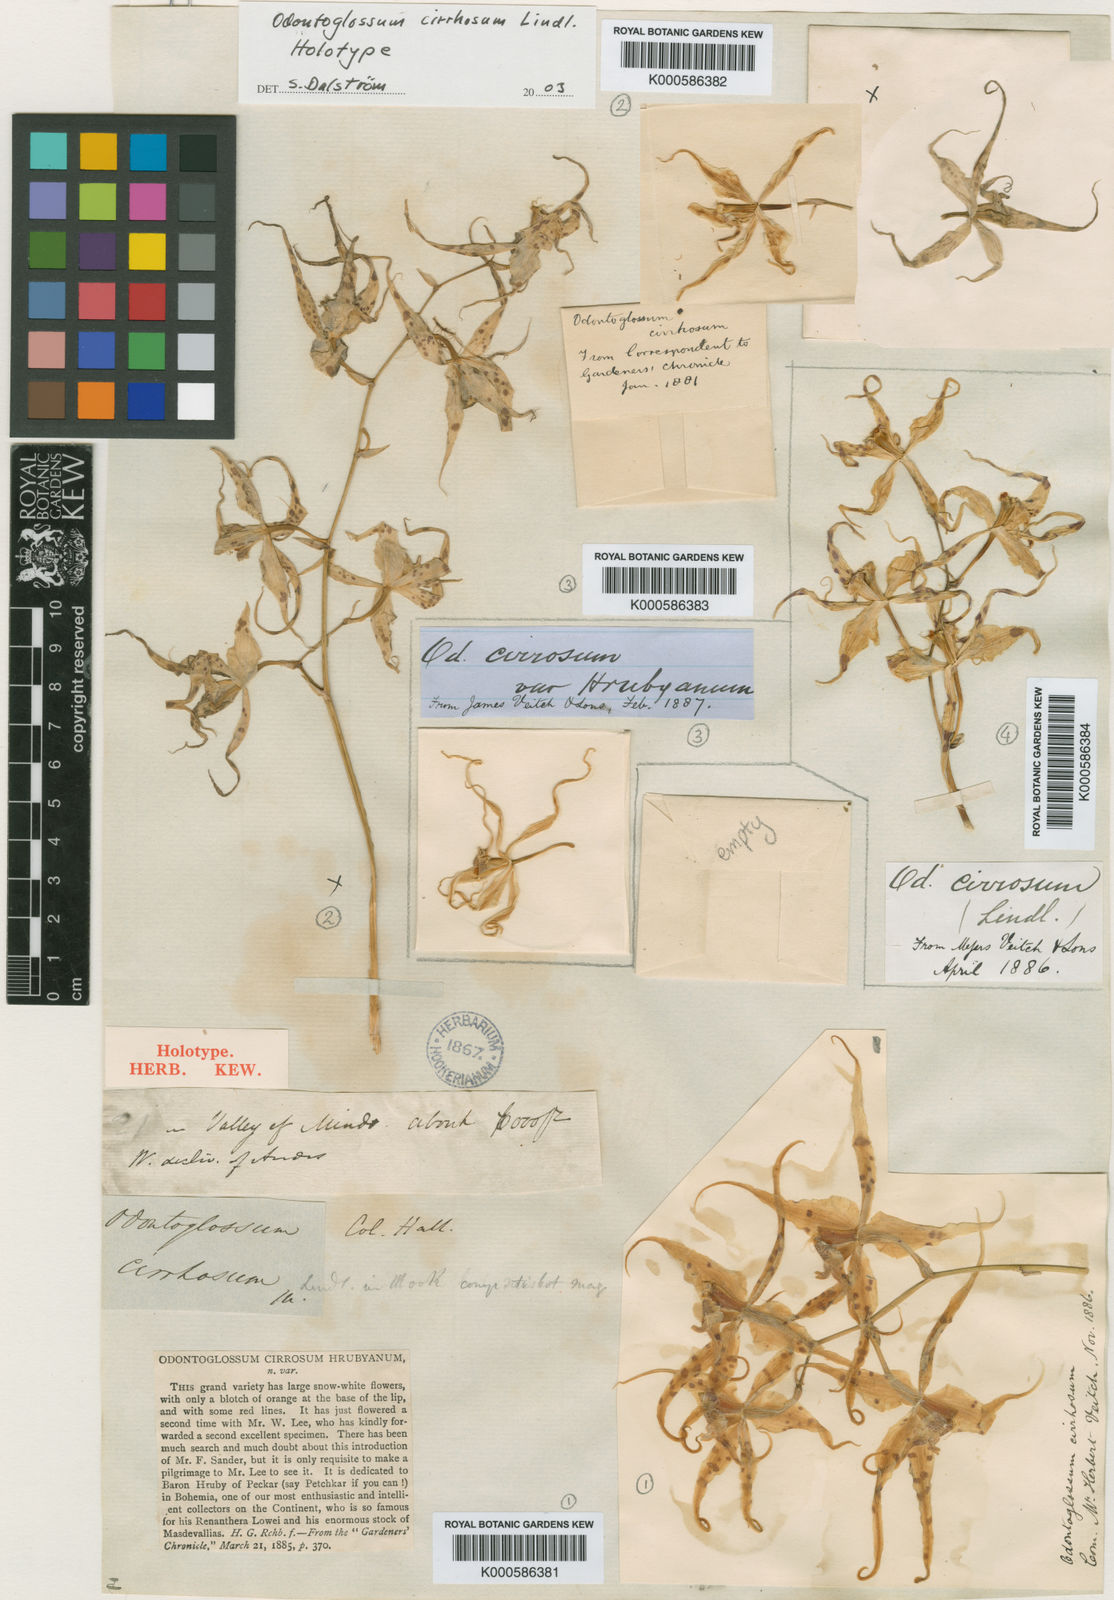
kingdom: Plantae
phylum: Tracheophyta
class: Liliopsida
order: Asparagales
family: Orchidaceae
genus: Oncidium
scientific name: Oncidium cirrhosum
